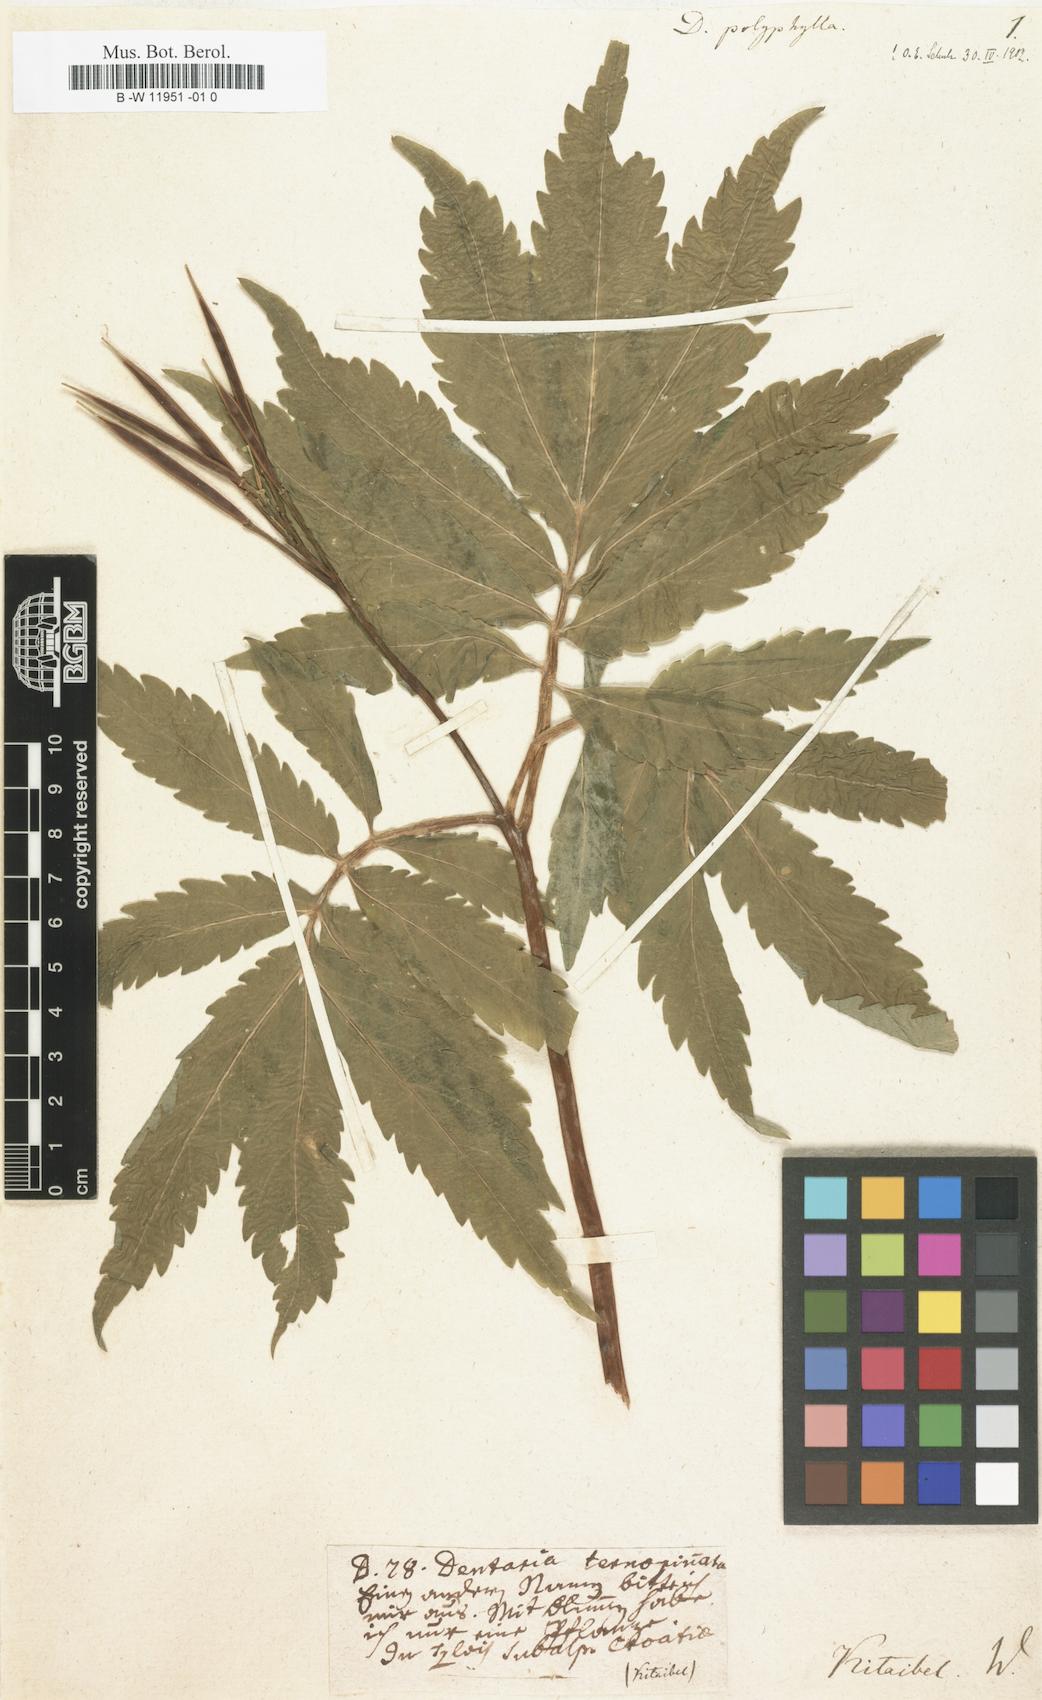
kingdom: Plantae
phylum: Tracheophyta
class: Magnoliopsida
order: Brassicales
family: Brassicaceae
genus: Cardamine
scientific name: Cardamine kitaibelii
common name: Kitaibel's bitter-cress
